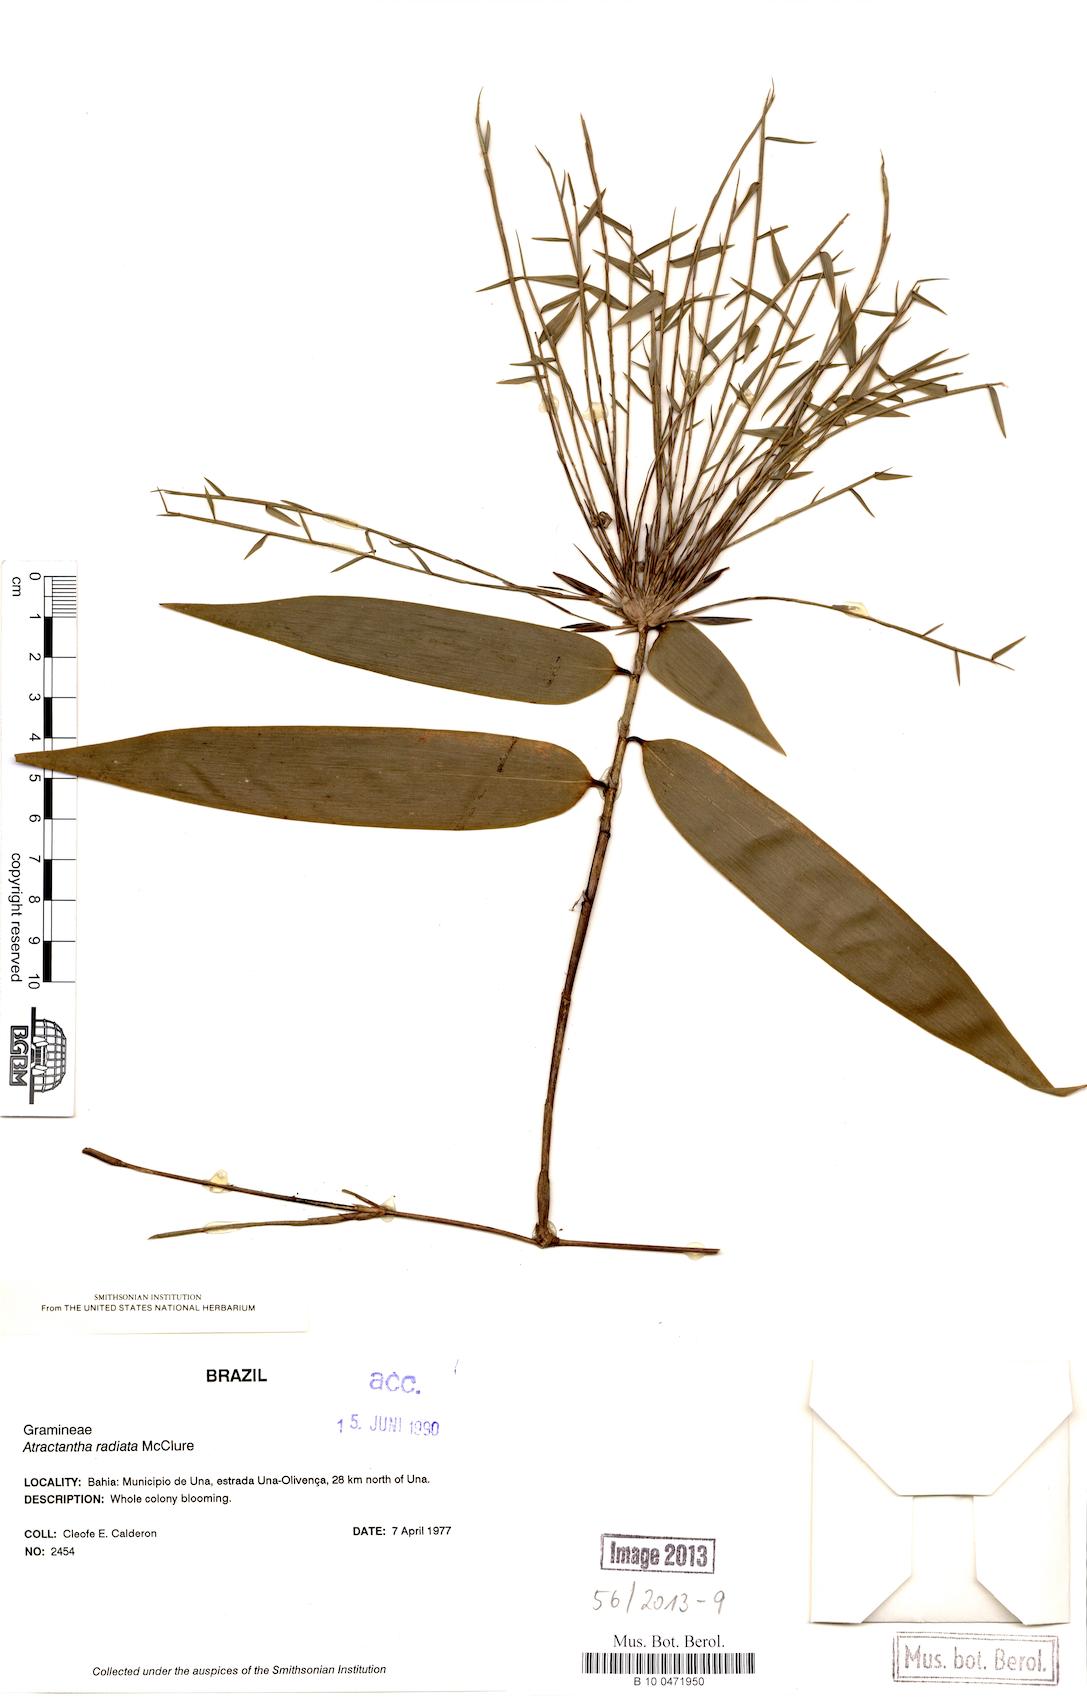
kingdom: Plantae
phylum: Tracheophyta
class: Liliopsida
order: Poales
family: Poaceae
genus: Atractantha
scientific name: Atractantha radiata
